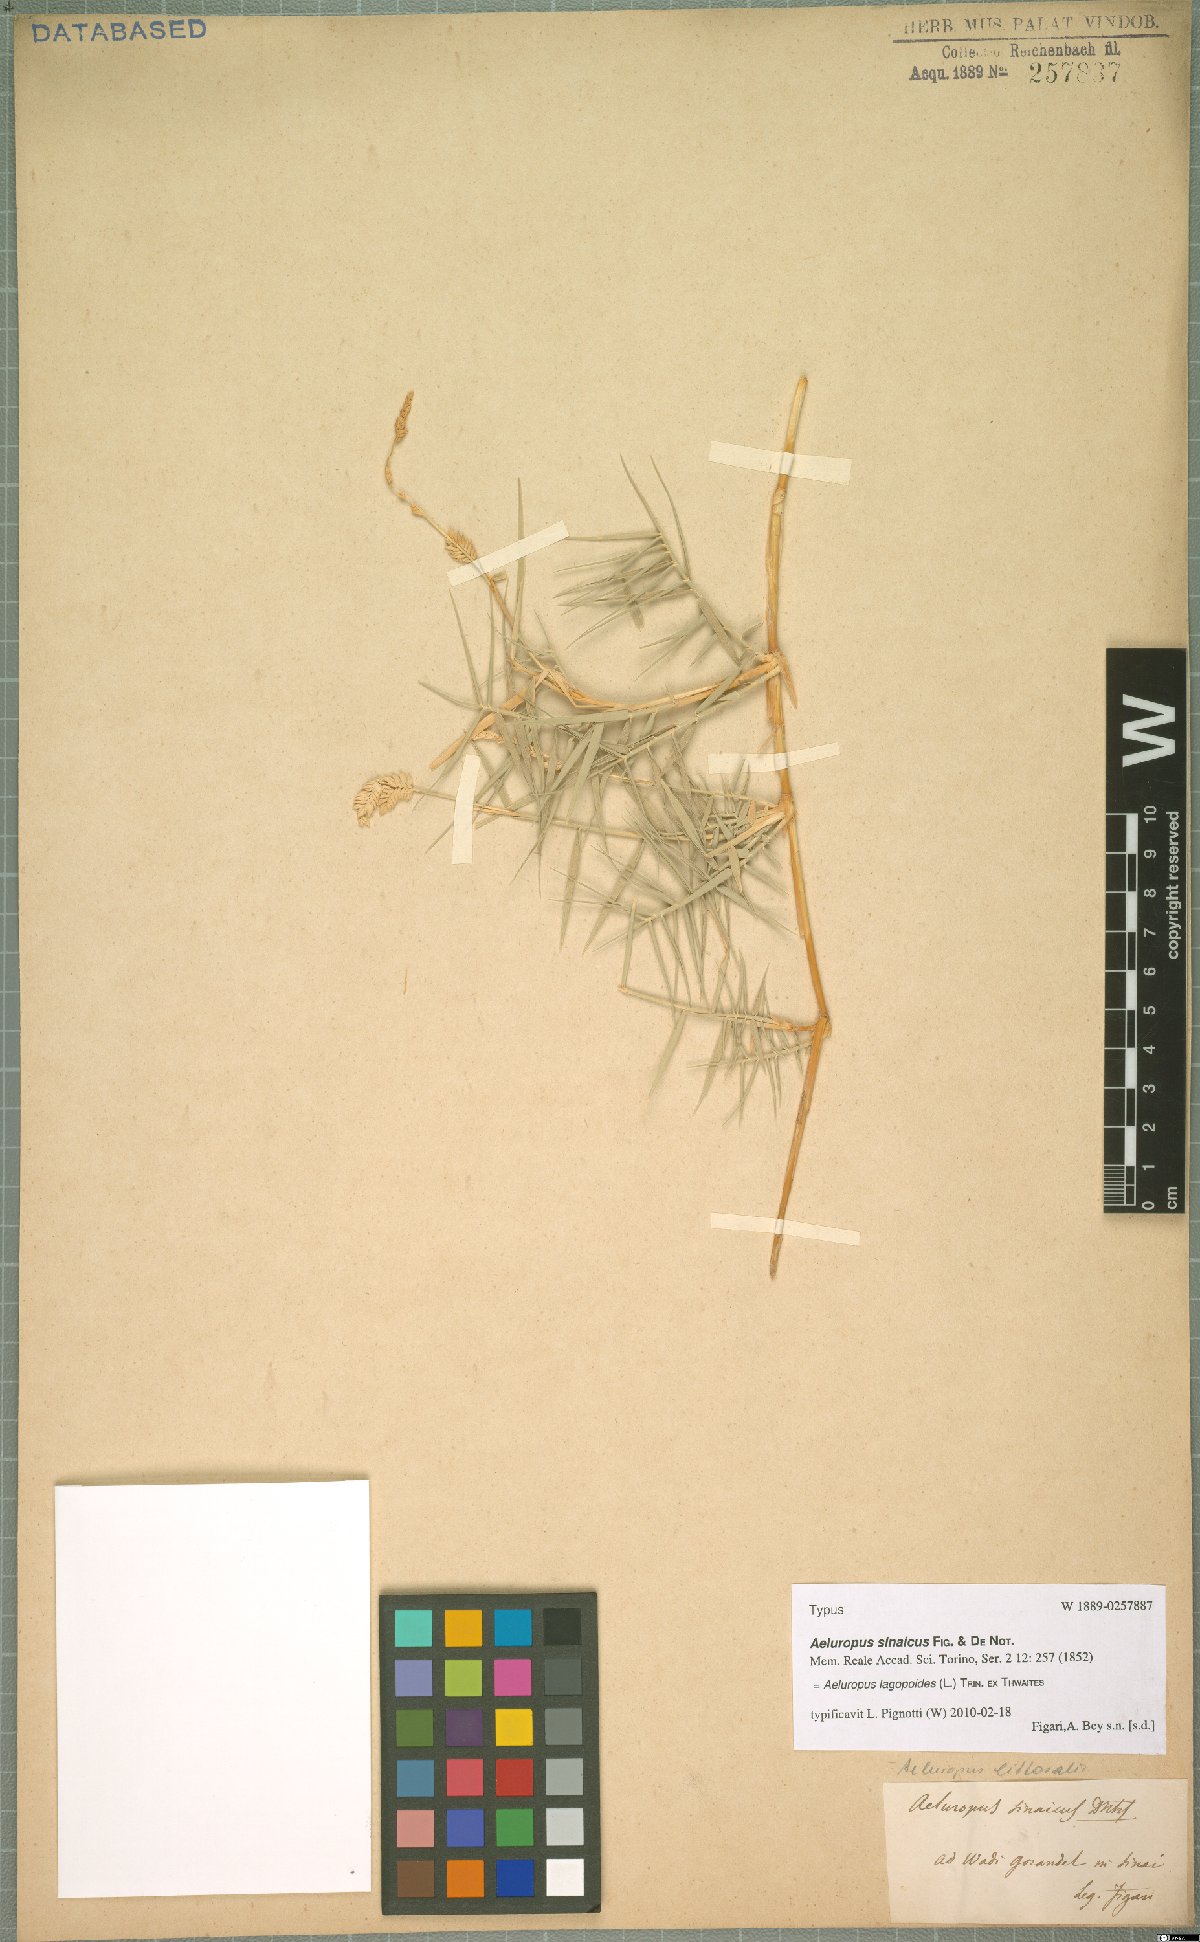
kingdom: Plantae
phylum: Tracheophyta
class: Liliopsida
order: Poales
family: Poaceae
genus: Aeluropus
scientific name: Aeluropus lagopoides
